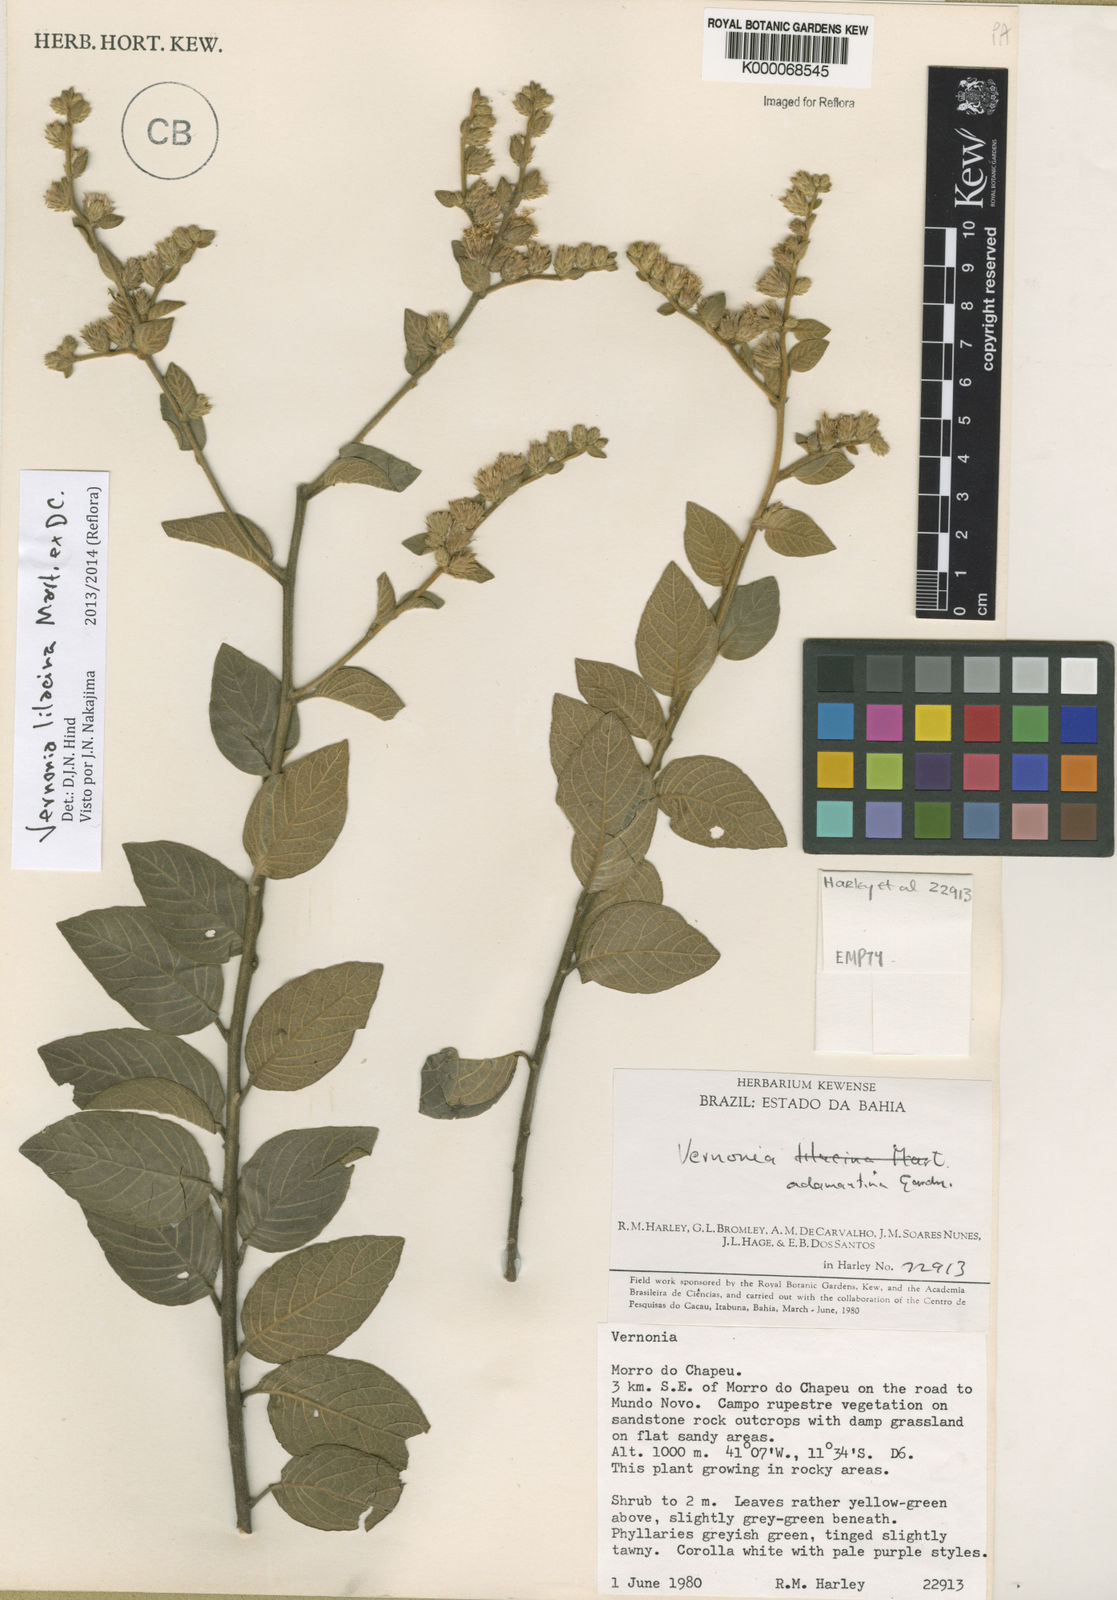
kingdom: Plantae
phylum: Tracheophyta
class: Magnoliopsida
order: Asterales
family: Asteraceae
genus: Lepidaploa
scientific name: Lepidaploa lilacina
